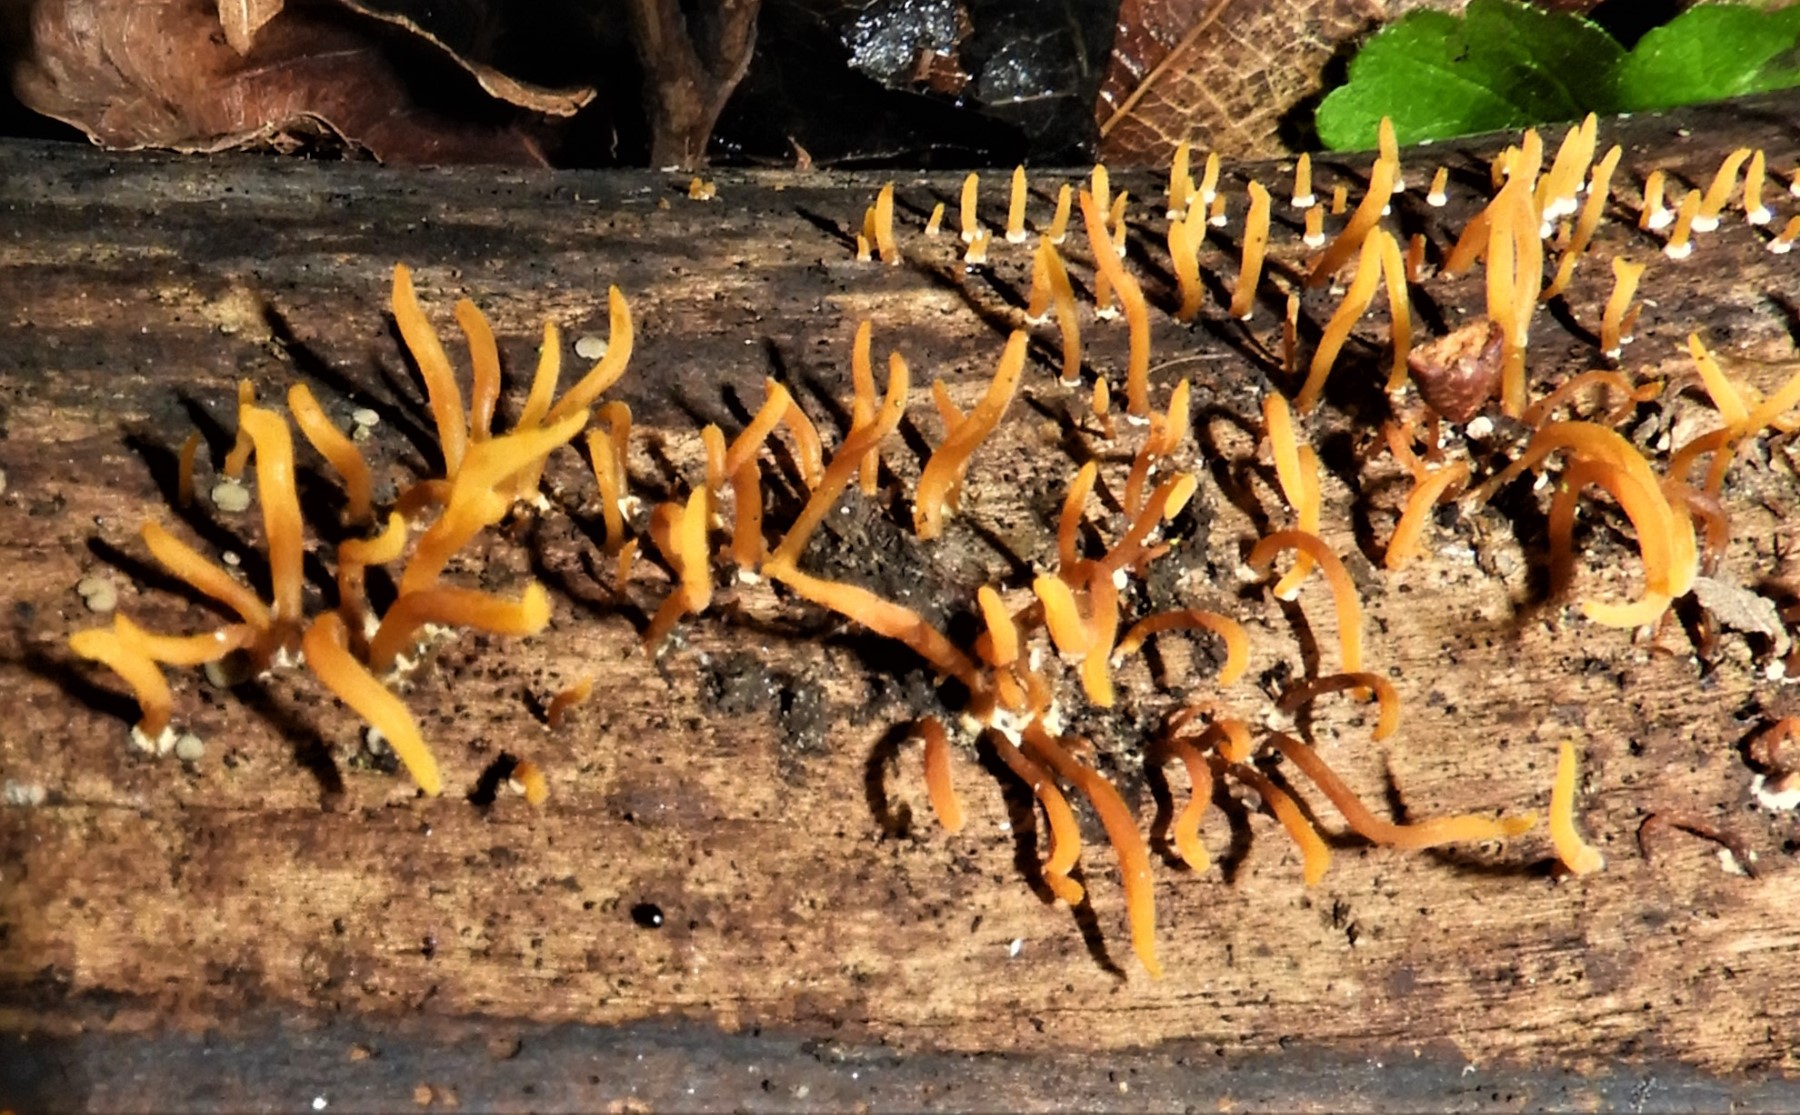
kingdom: Fungi
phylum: Basidiomycota
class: Dacrymycetes
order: Dacrymycetales
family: Dacrymycetaceae
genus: Calocera
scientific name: Calocera cornea
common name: liden guldgaffel
